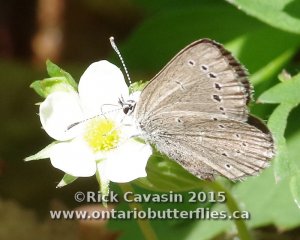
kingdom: Animalia
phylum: Arthropoda
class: Insecta
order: Lepidoptera
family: Lycaenidae
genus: Glaucopsyche
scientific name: Glaucopsyche lygdamus
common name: Silvery Blue
